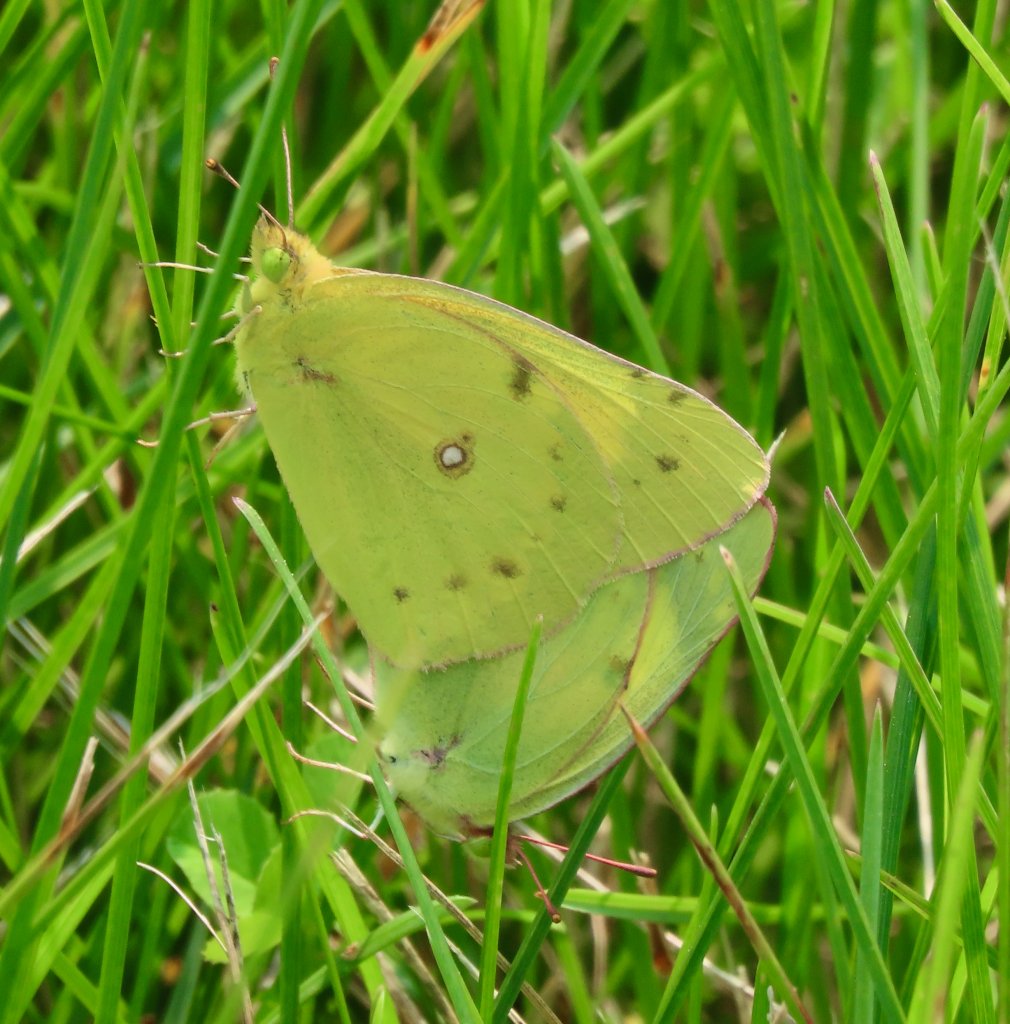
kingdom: Animalia
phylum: Arthropoda
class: Insecta
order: Lepidoptera
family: Pieridae
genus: Colias
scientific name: Colias eurytheme
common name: Orange Sulphur
